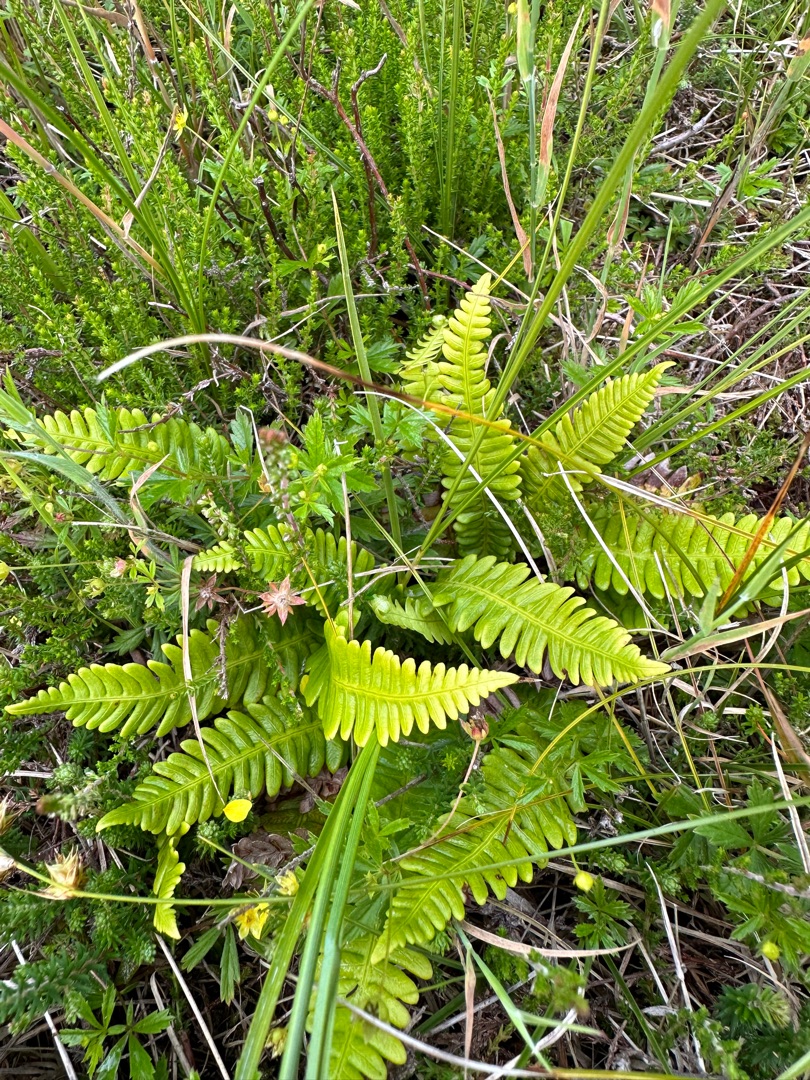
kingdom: Plantae
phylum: Tracheophyta
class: Polypodiopsida
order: Polypodiales
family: Blechnaceae
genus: Struthiopteris
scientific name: Struthiopteris spicant
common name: Kambregne
